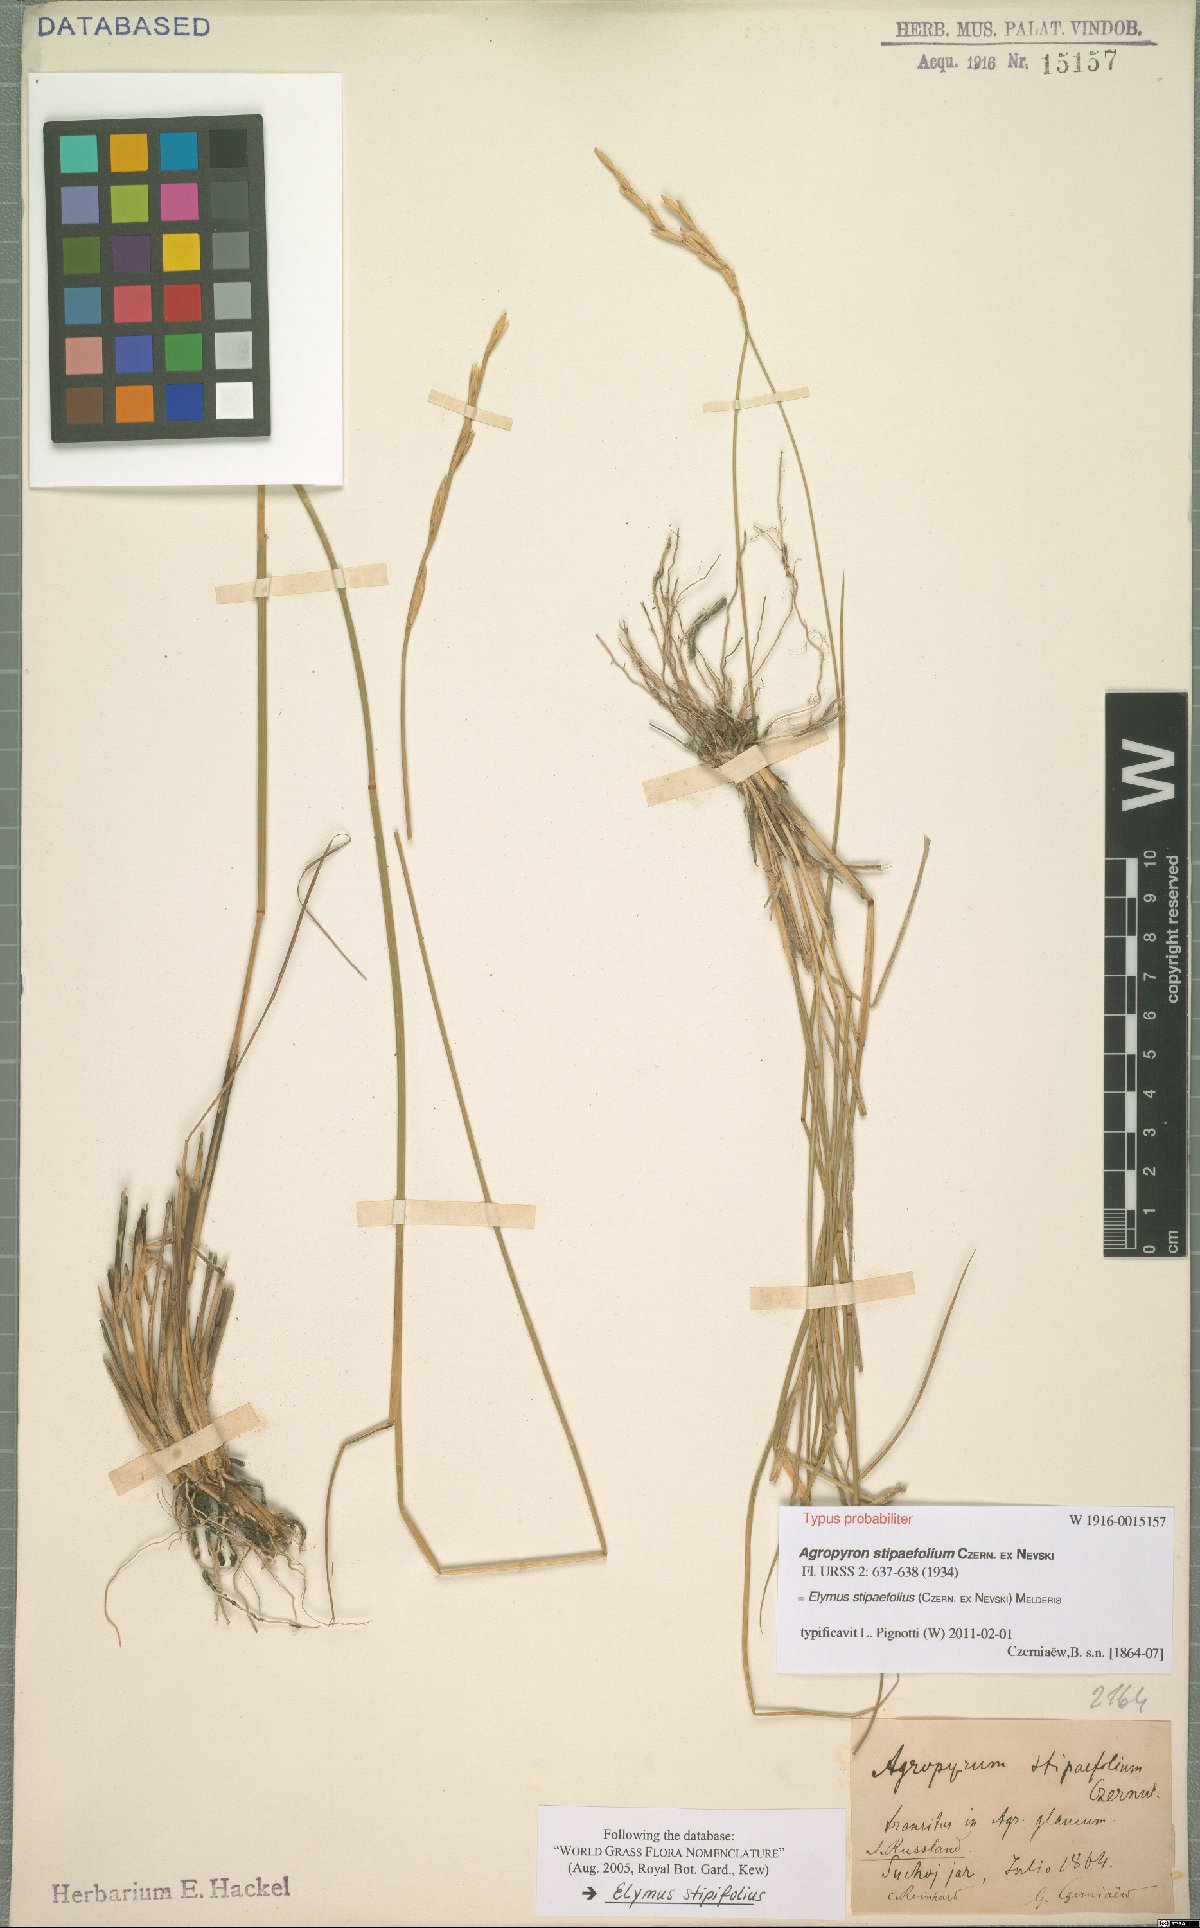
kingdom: Plantae
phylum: Tracheophyta
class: Liliopsida
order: Poales
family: Poaceae
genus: Pseudoroegneria
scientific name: Pseudoroegneria stipifolia
